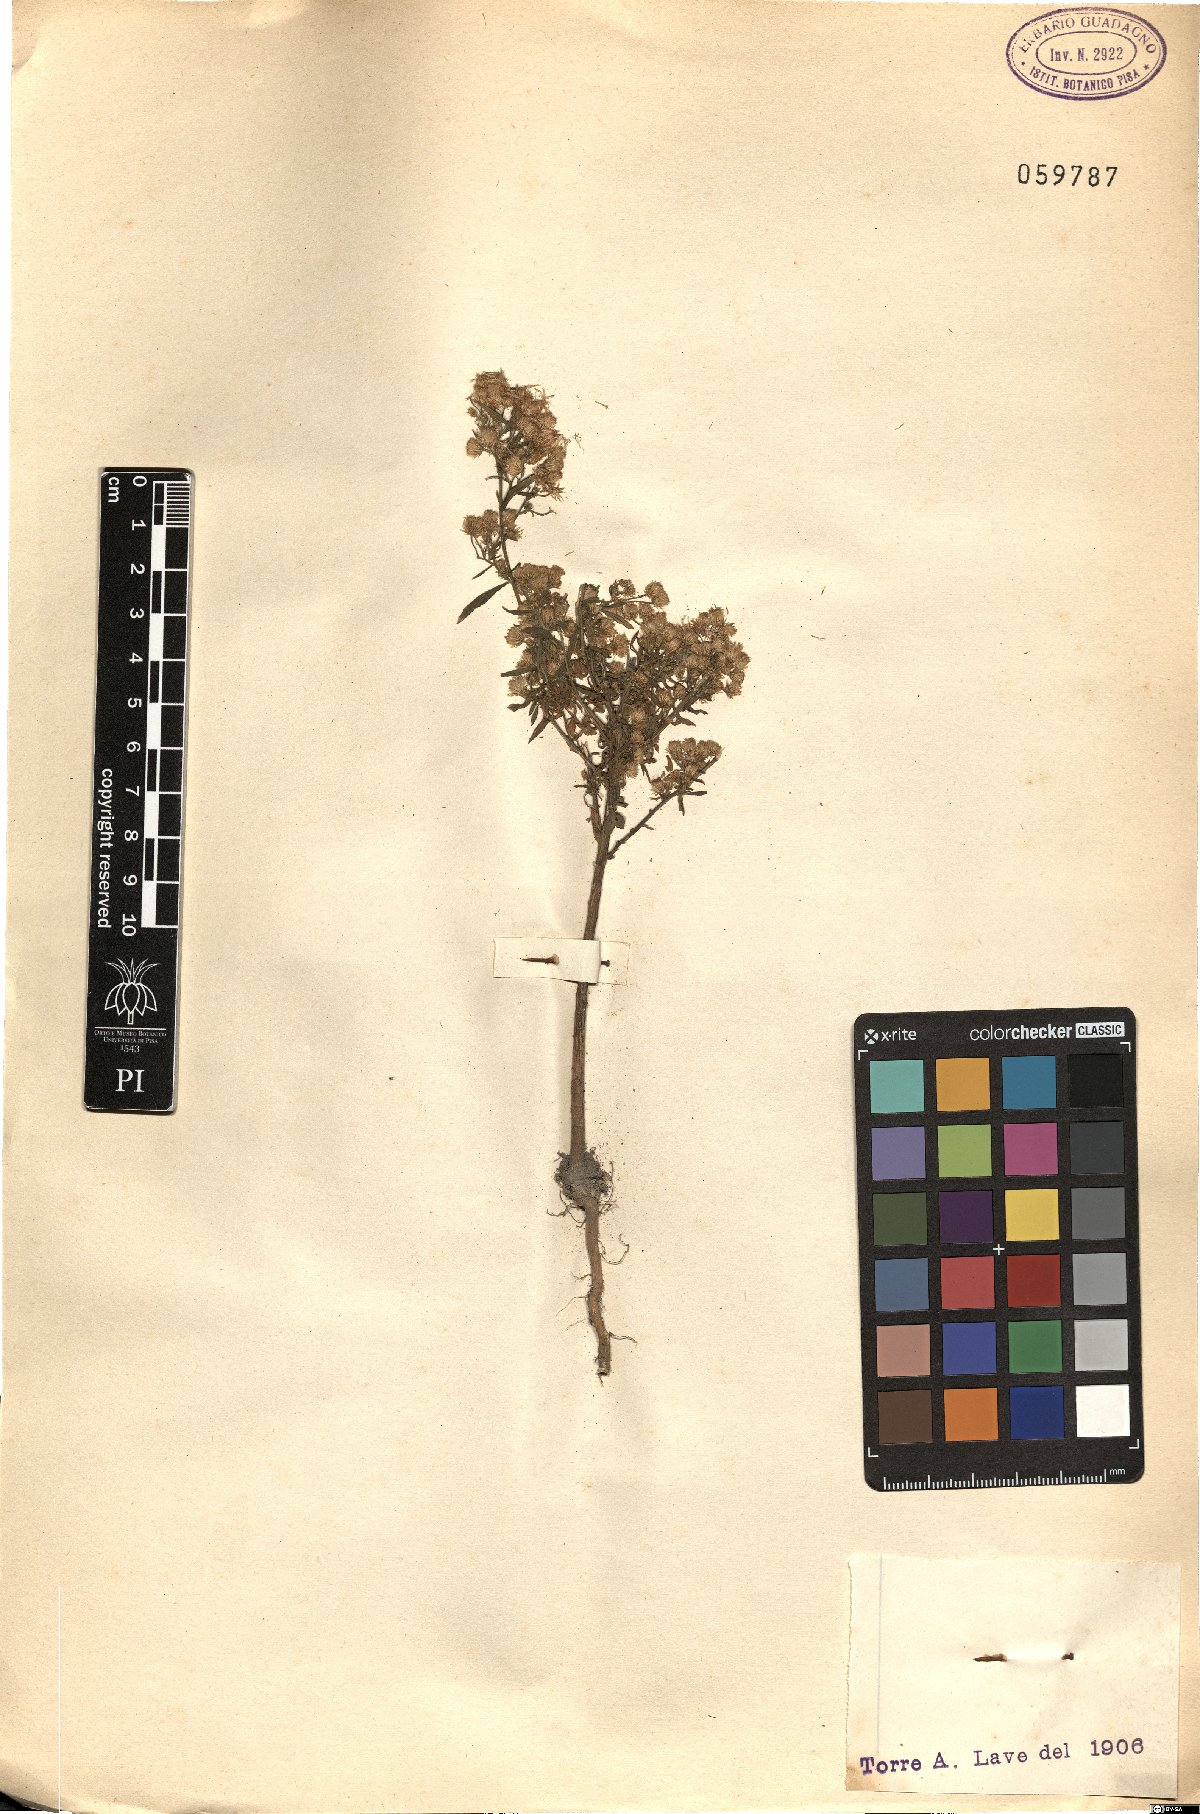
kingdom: Plantae
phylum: Tracheophyta
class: Magnoliopsida
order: Asterales
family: Asteraceae
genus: Erigeron
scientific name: Erigeron
